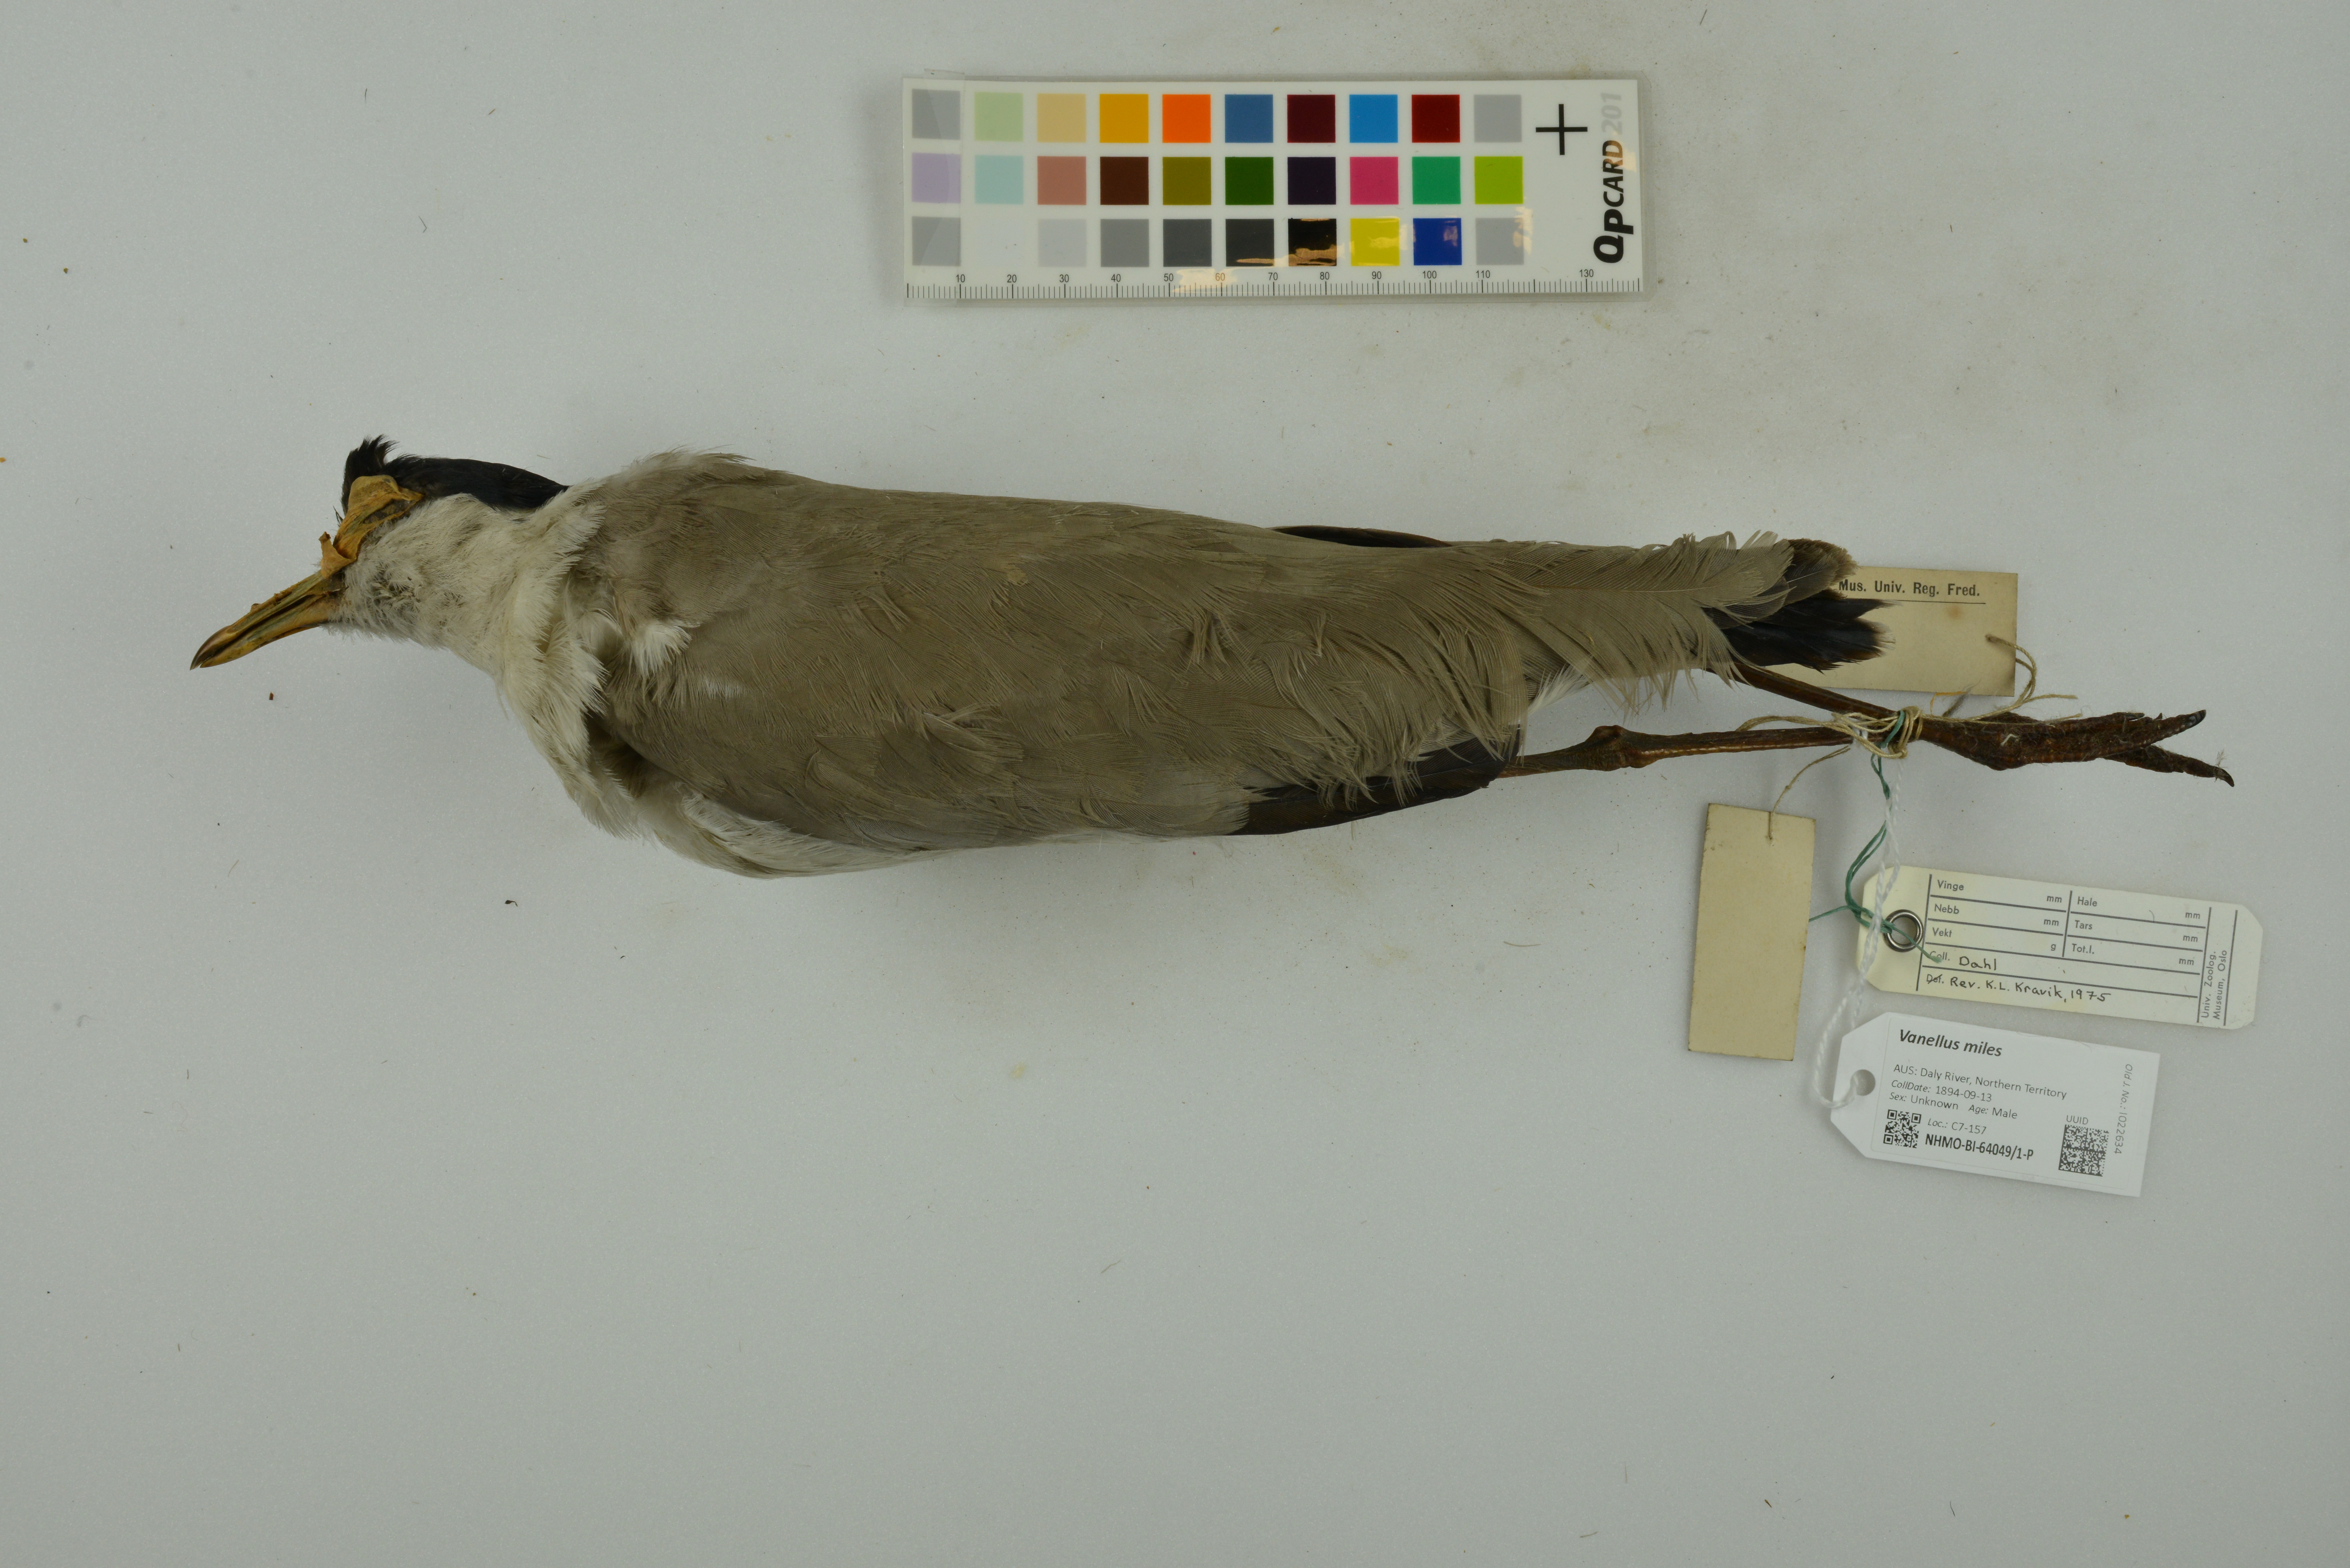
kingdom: Animalia
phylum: Chordata
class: Aves
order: Charadriiformes
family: Charadriidae
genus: Vanellus
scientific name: Vanellus miles
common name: Masked lapwing
